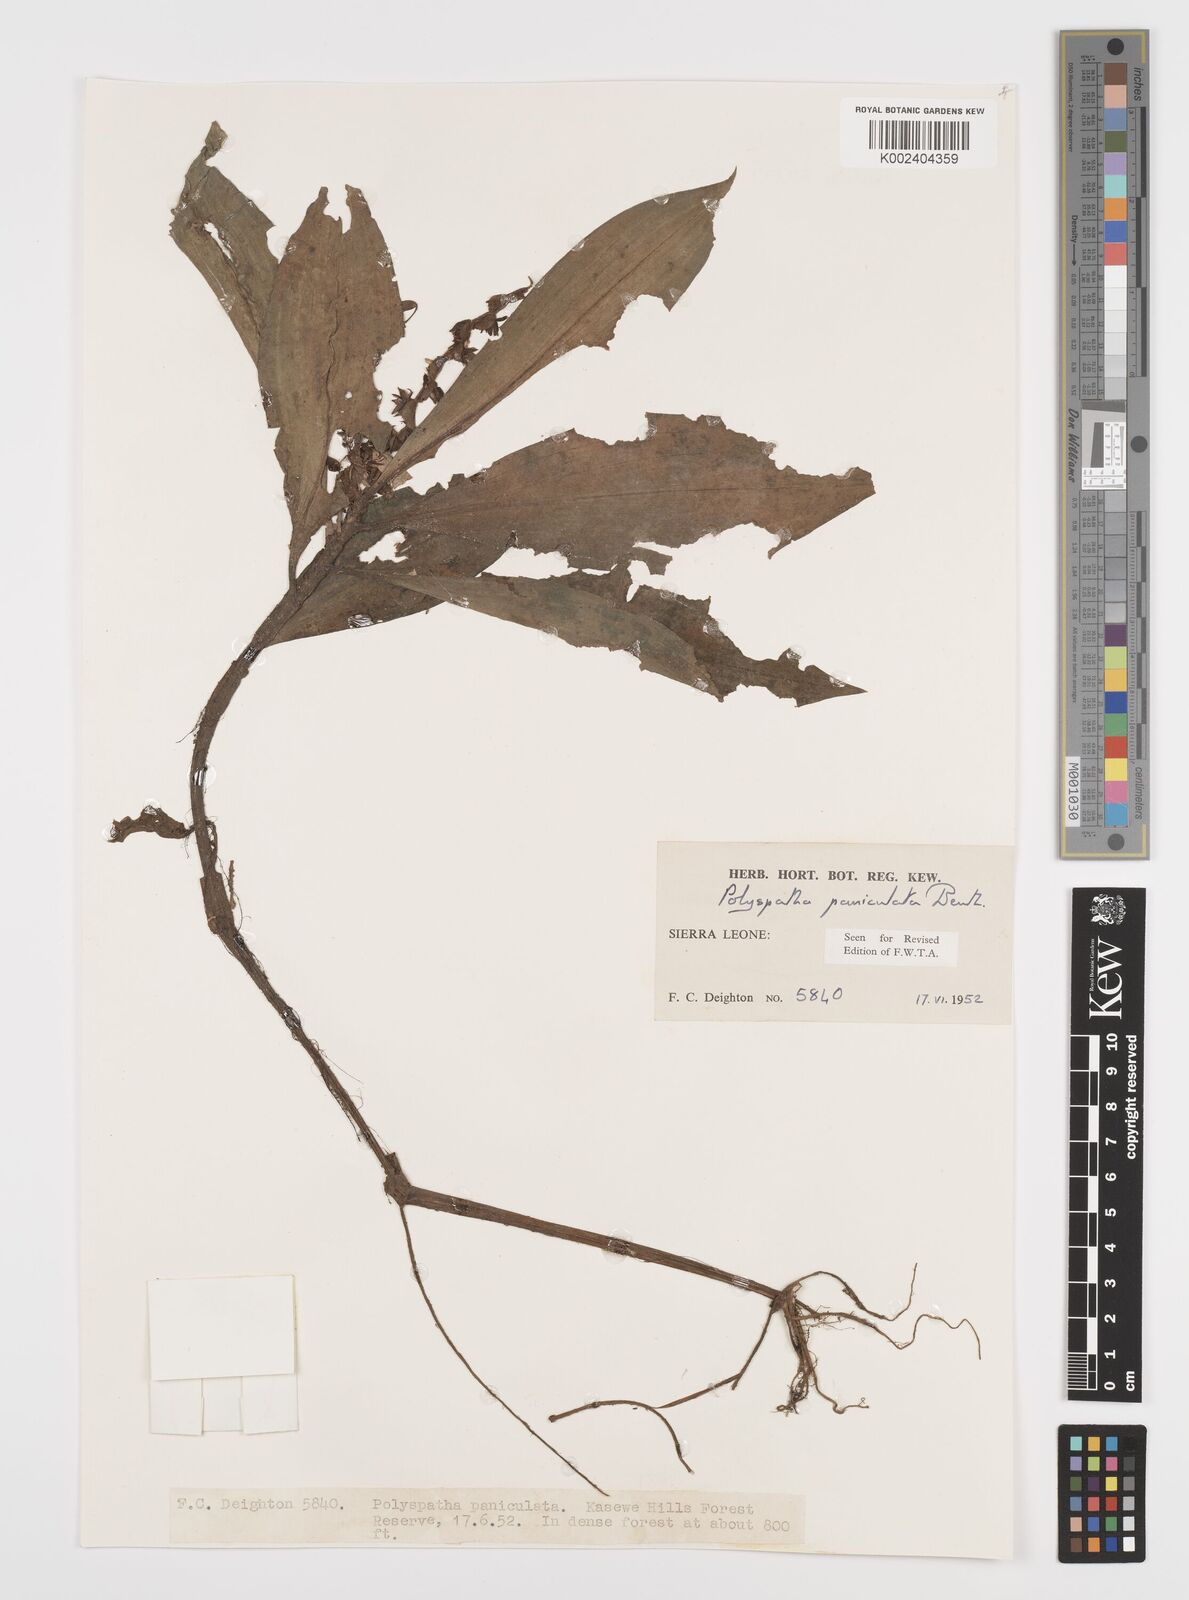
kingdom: Plantae
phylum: Tracheophyta
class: Liliopsida
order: Commelinales
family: Commelinaceae
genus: Polyspatha
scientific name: Polyspatha paniculata
